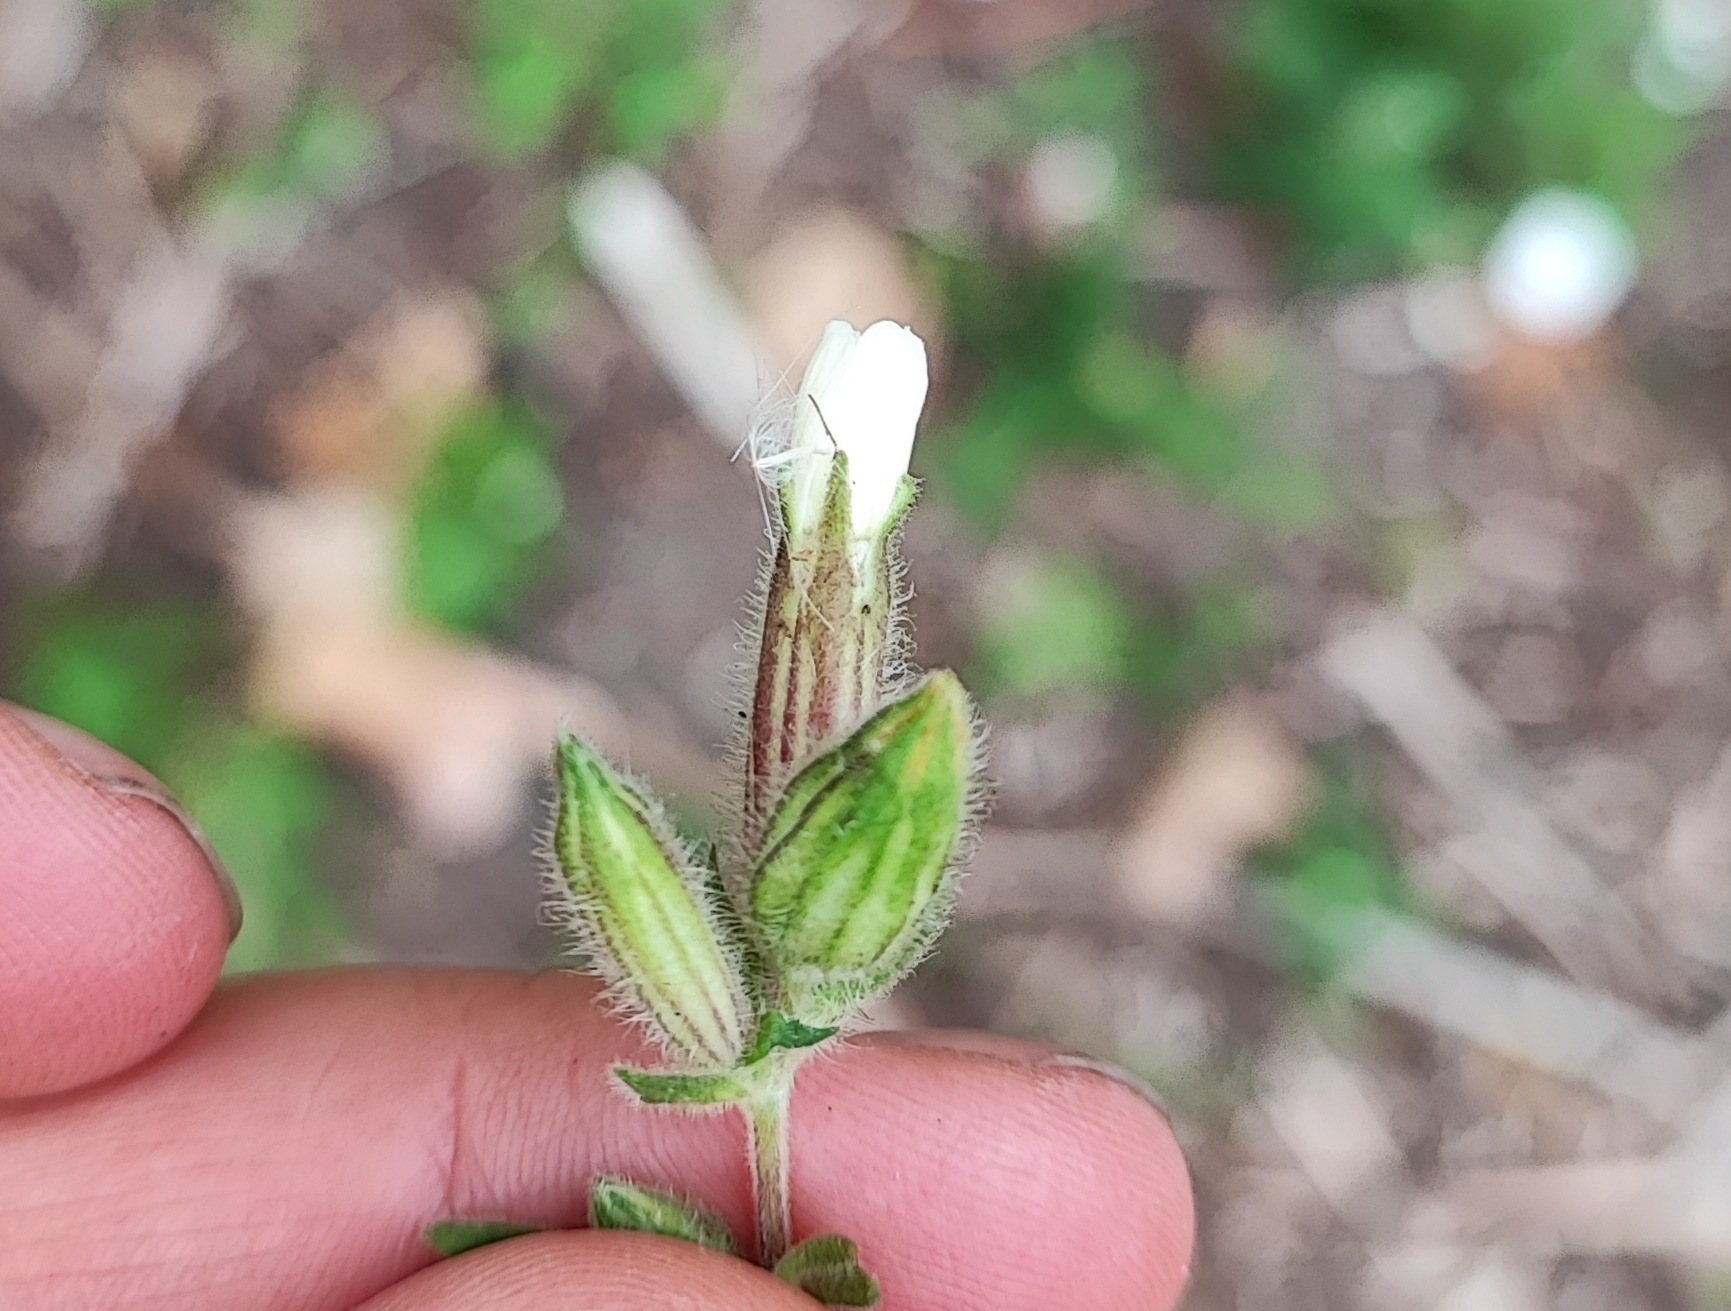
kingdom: Animalia
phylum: Arthropoda
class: Insecta
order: Diptera
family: Cecidomyiidae
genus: Contarinia
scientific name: Contarinia steini
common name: Pragtstjernegalmyg
